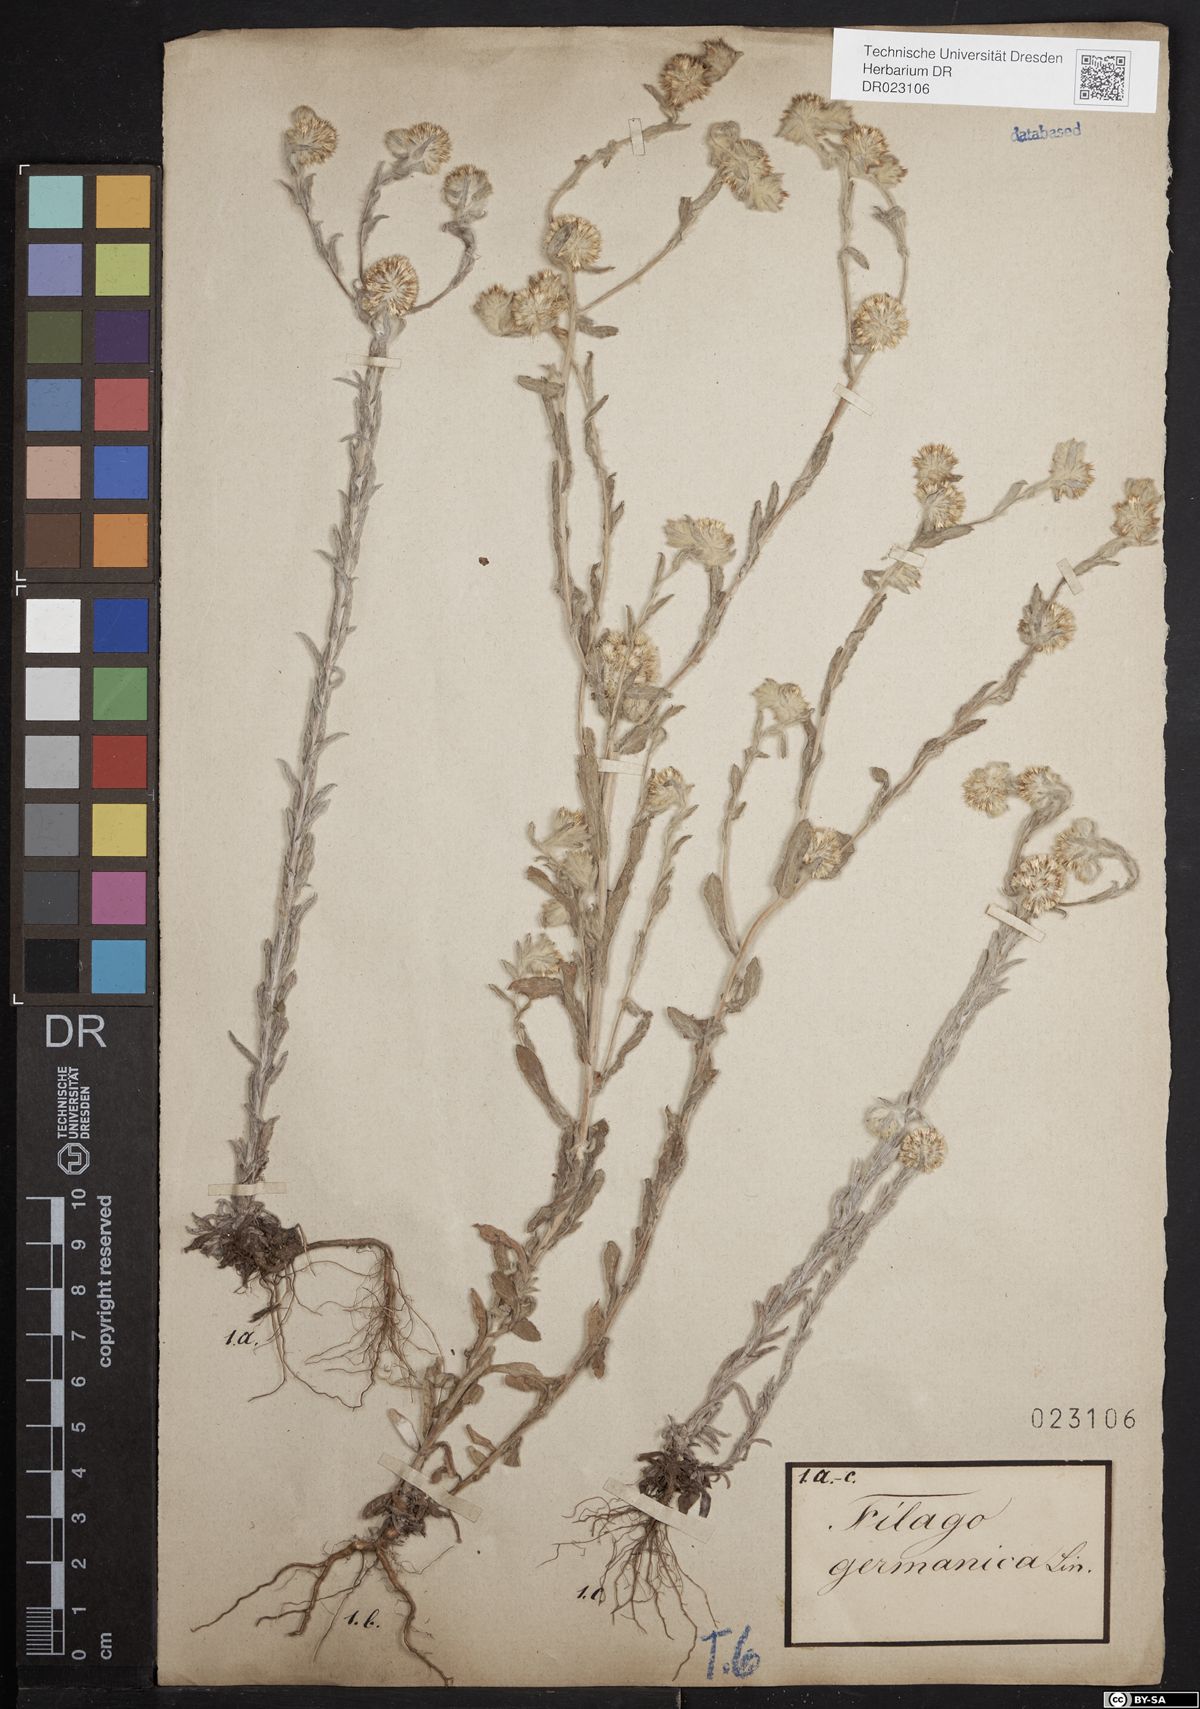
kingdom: Plantae
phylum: Tracheophyta
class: Magnoliopsida
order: Asterales
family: Asteraceae
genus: Filago
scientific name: Filago germanica
